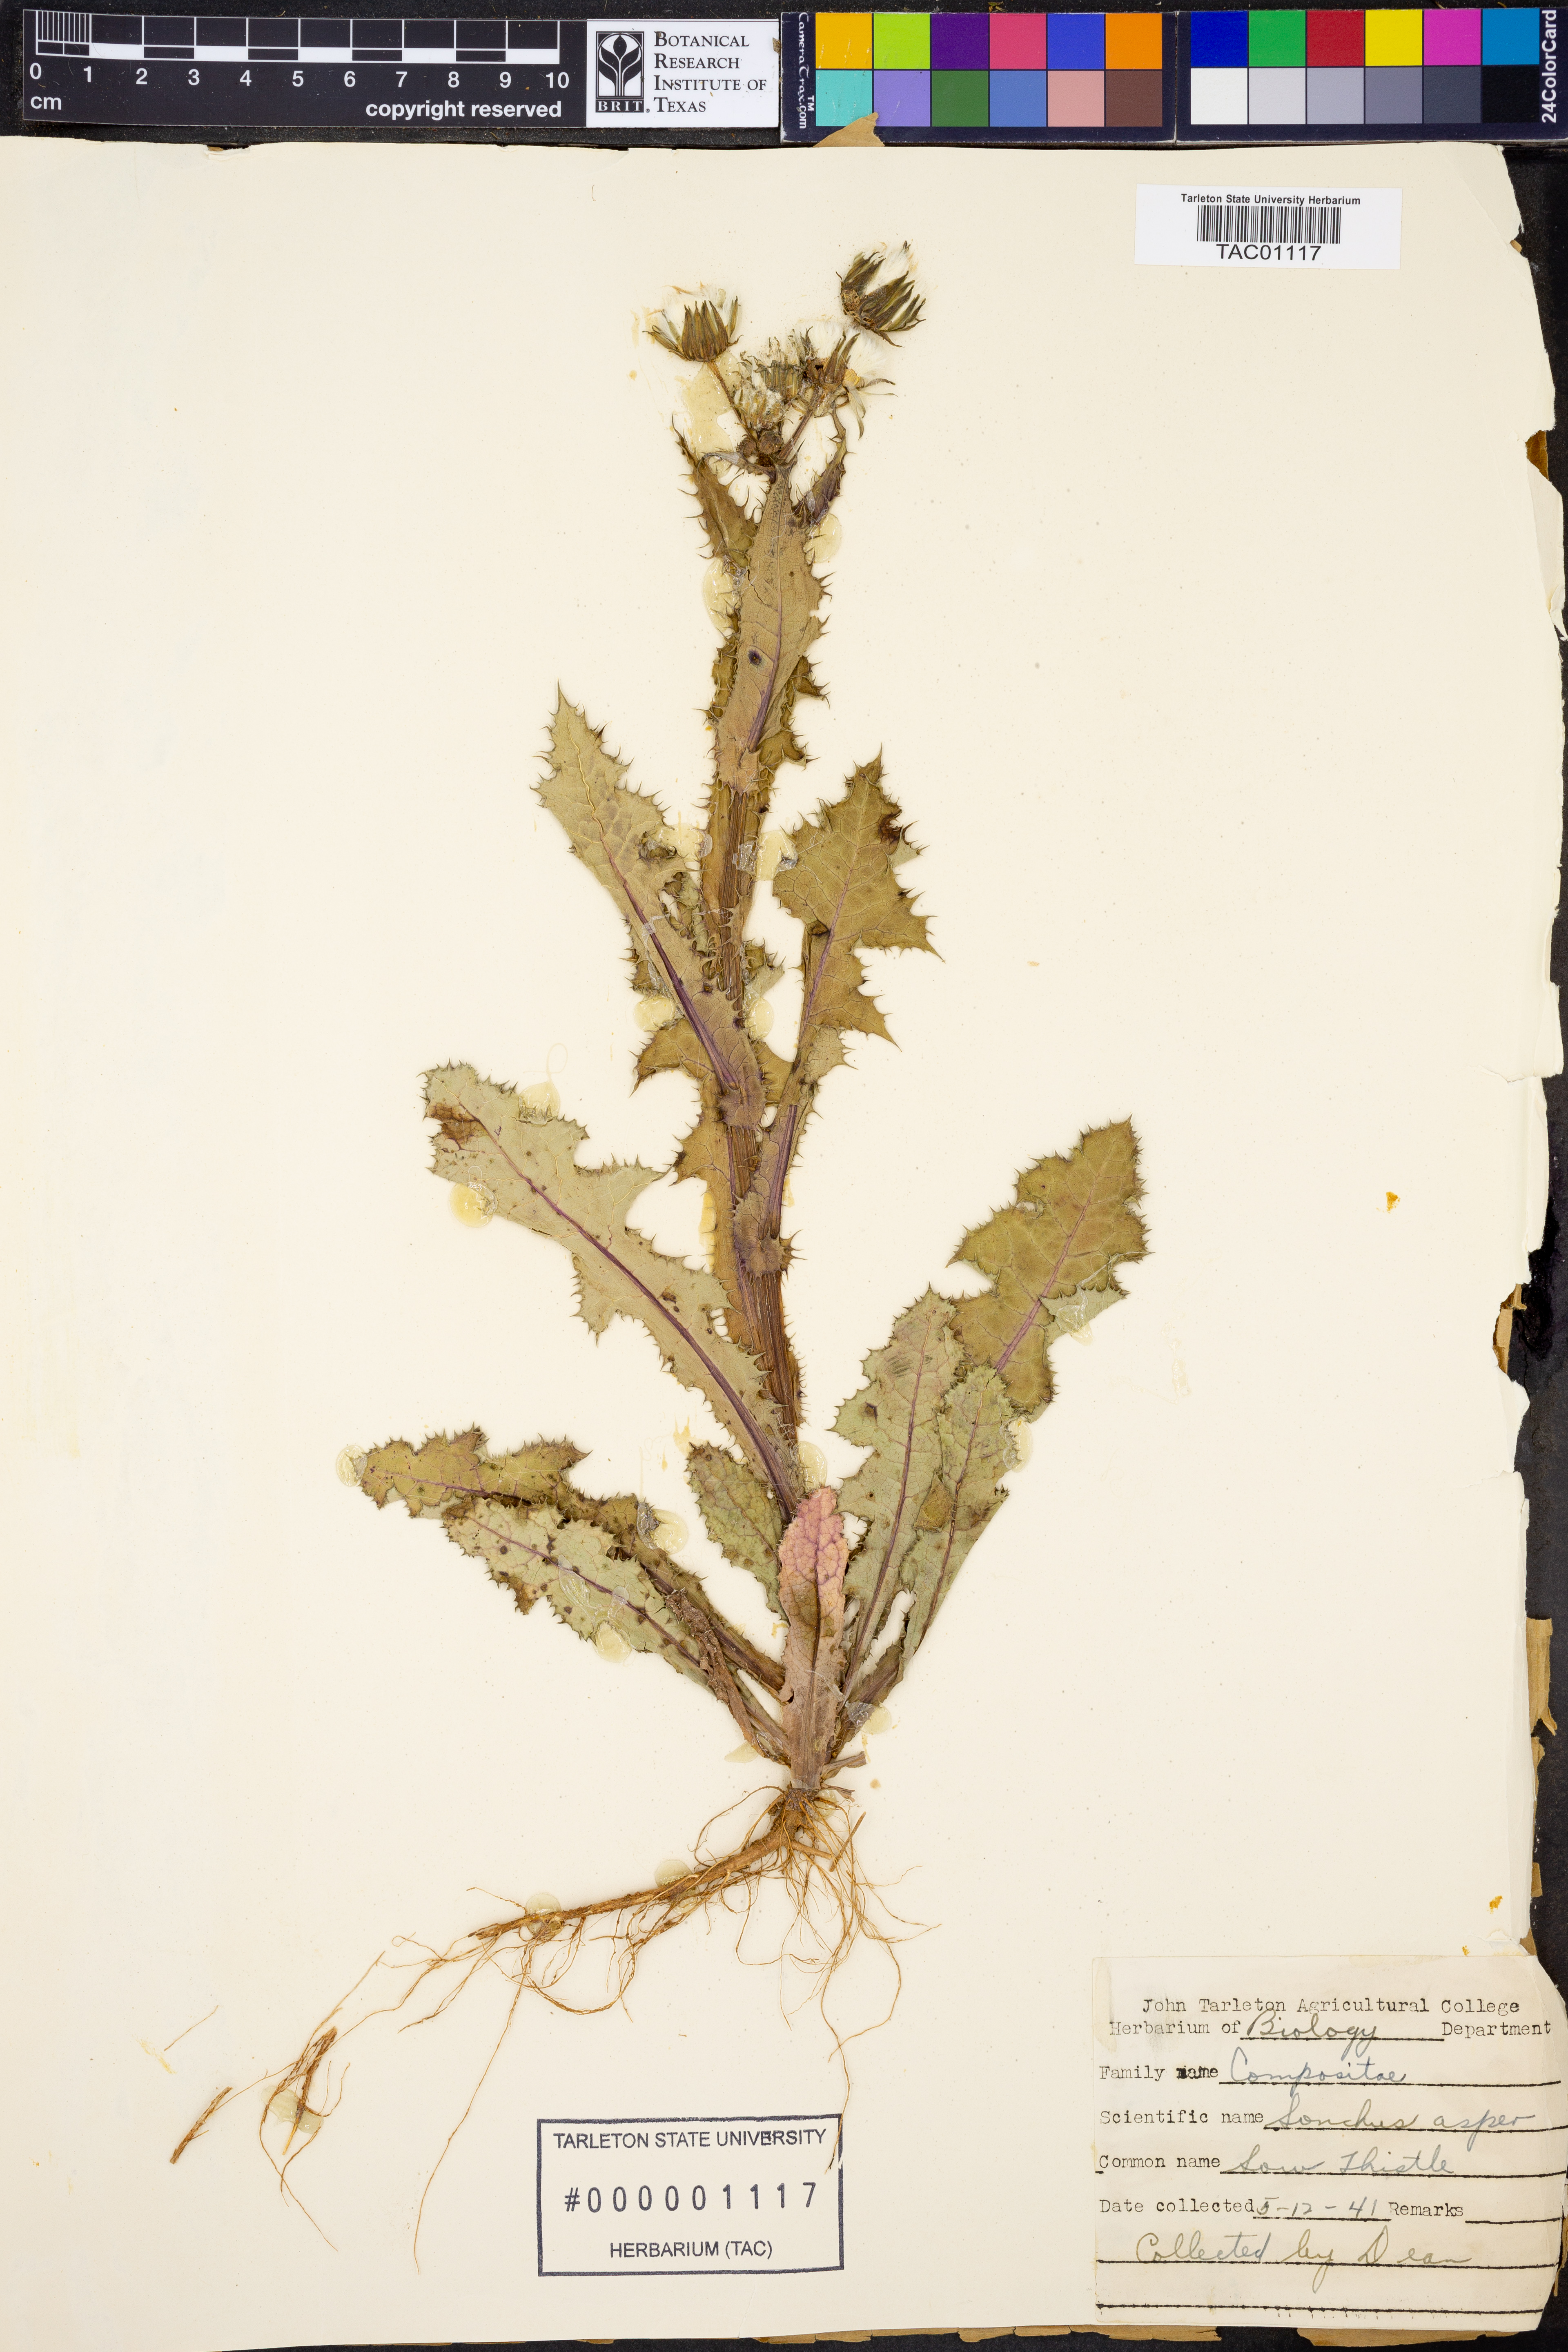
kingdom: Plantae
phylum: Tracheophyta
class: Magnoliopsida
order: Asterales
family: Asteraceae
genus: Sonchus
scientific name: Sonchus asper
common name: Prickly sow-thistle
